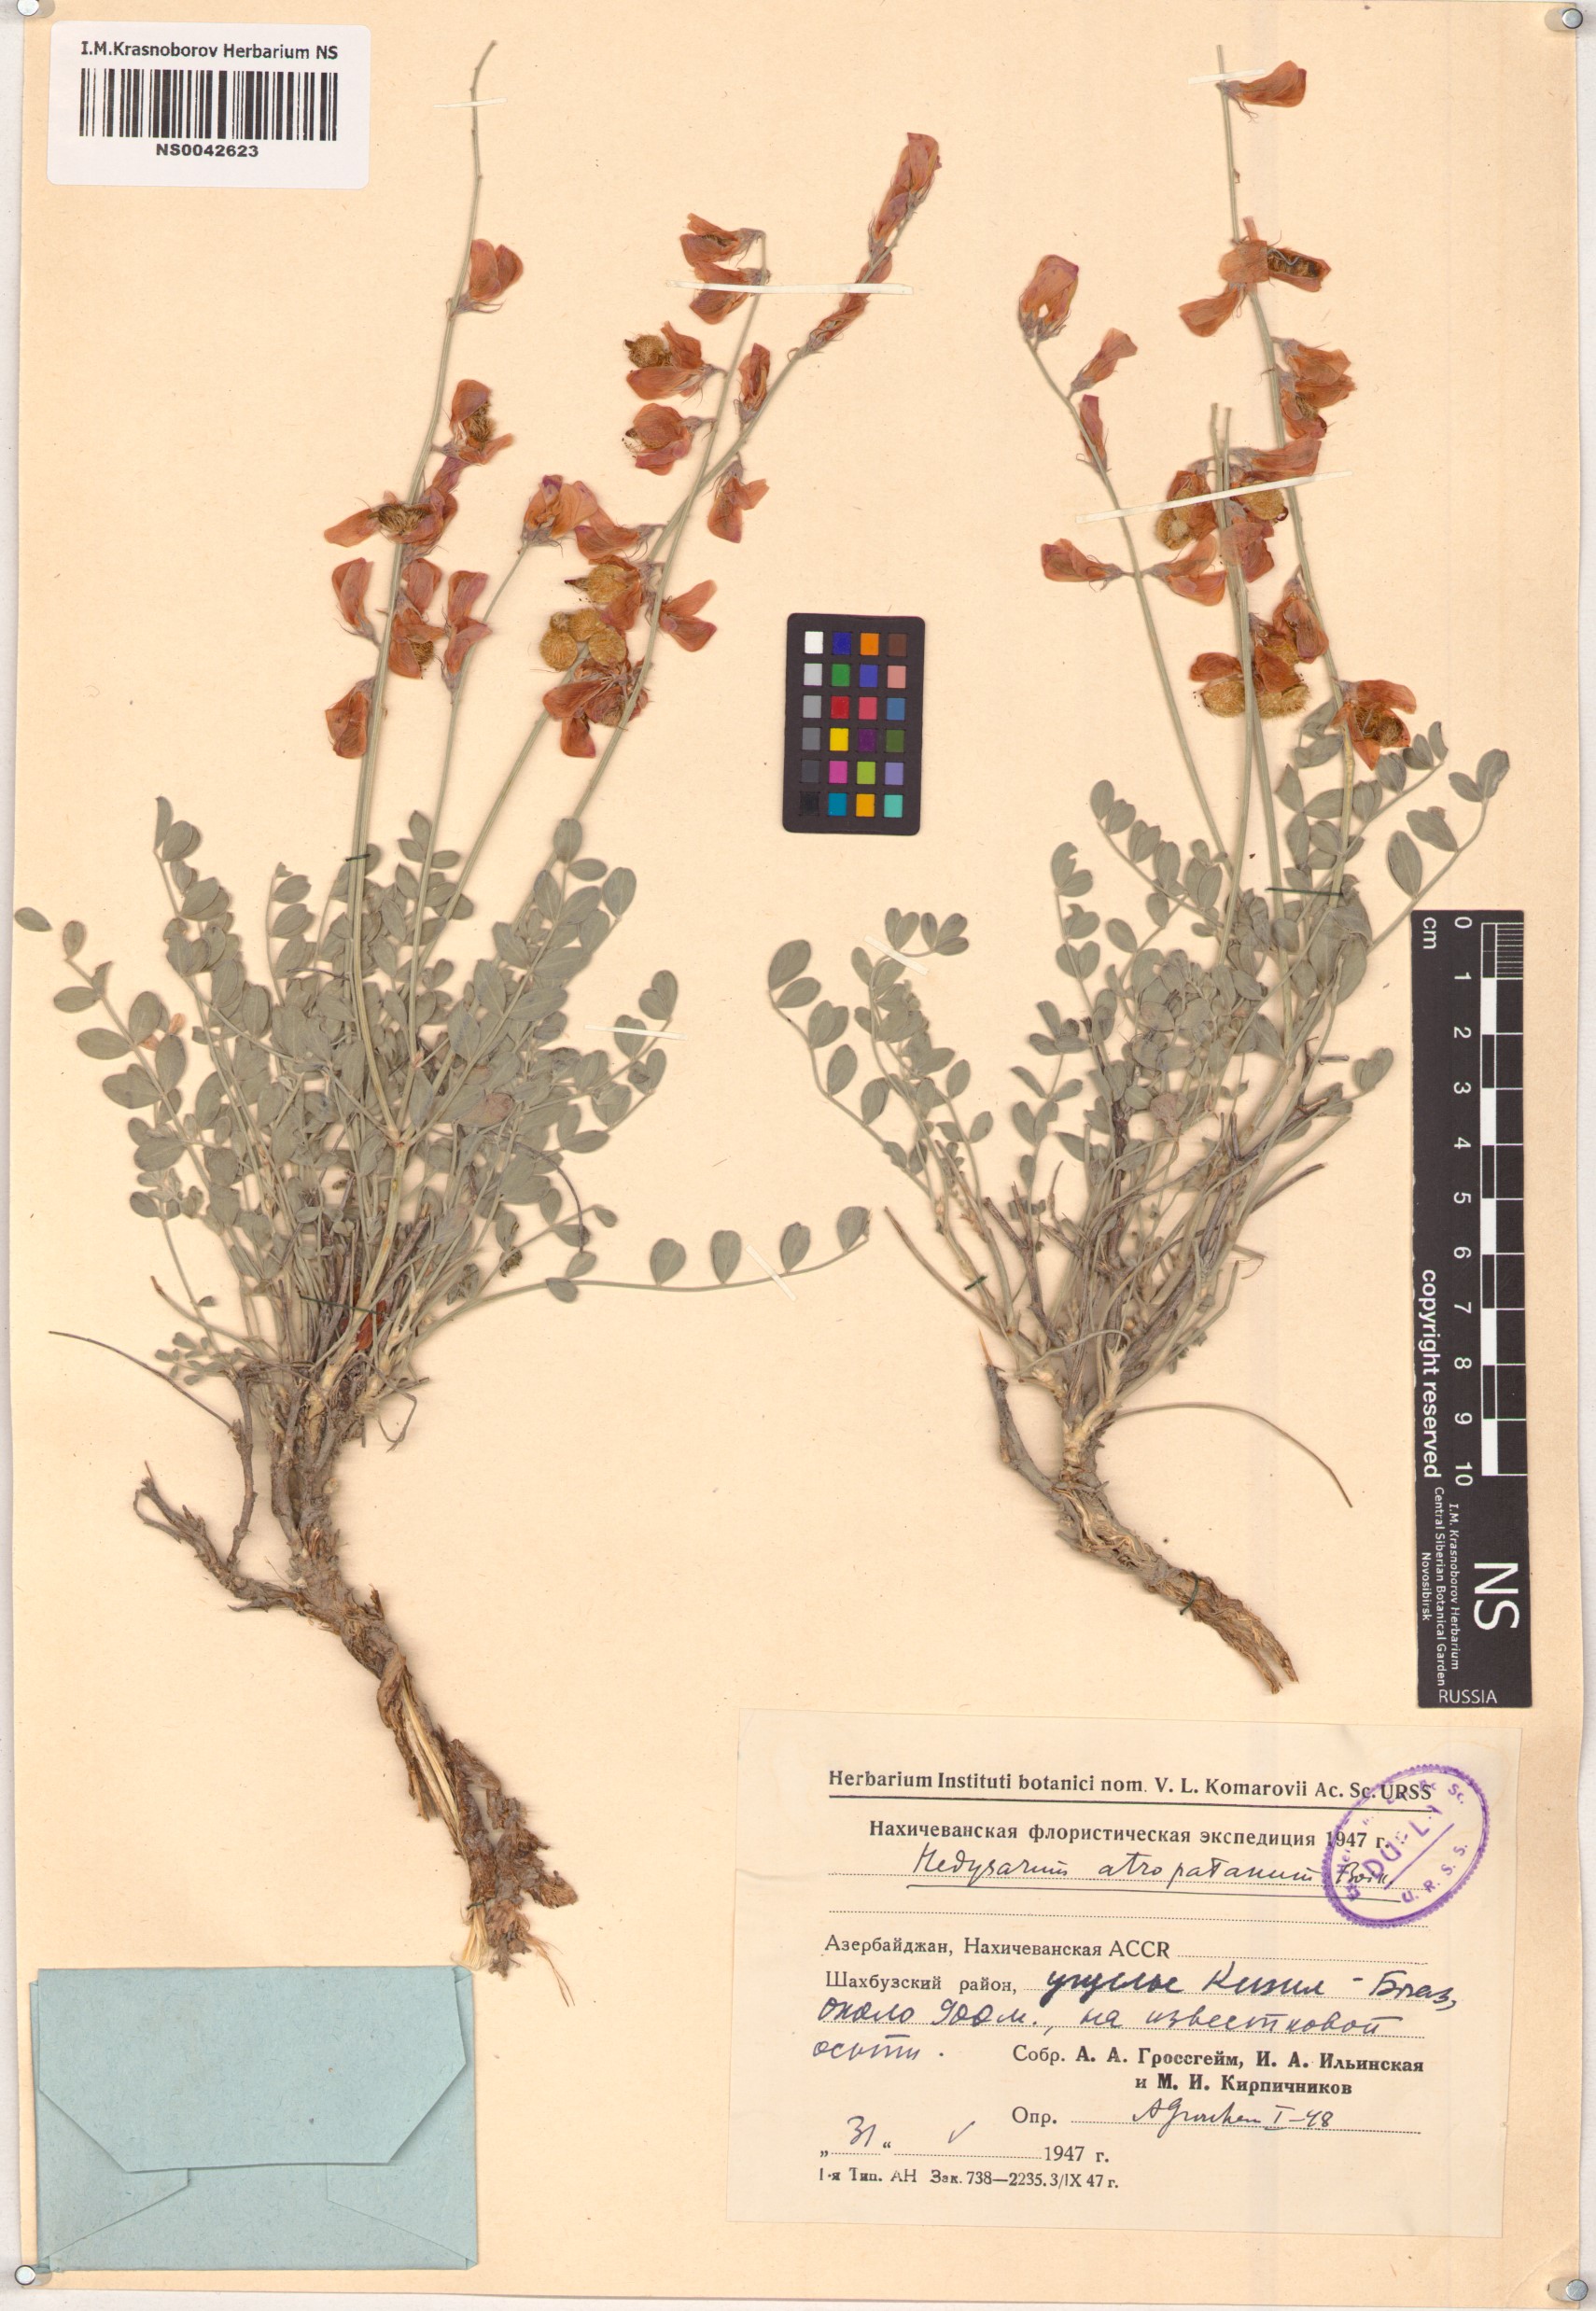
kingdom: Plantae
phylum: Tracheophyta
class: Magnoliopsida
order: Fabales
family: Fabaceae
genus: Hedysarum
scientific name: Hedysarum atropatanum
